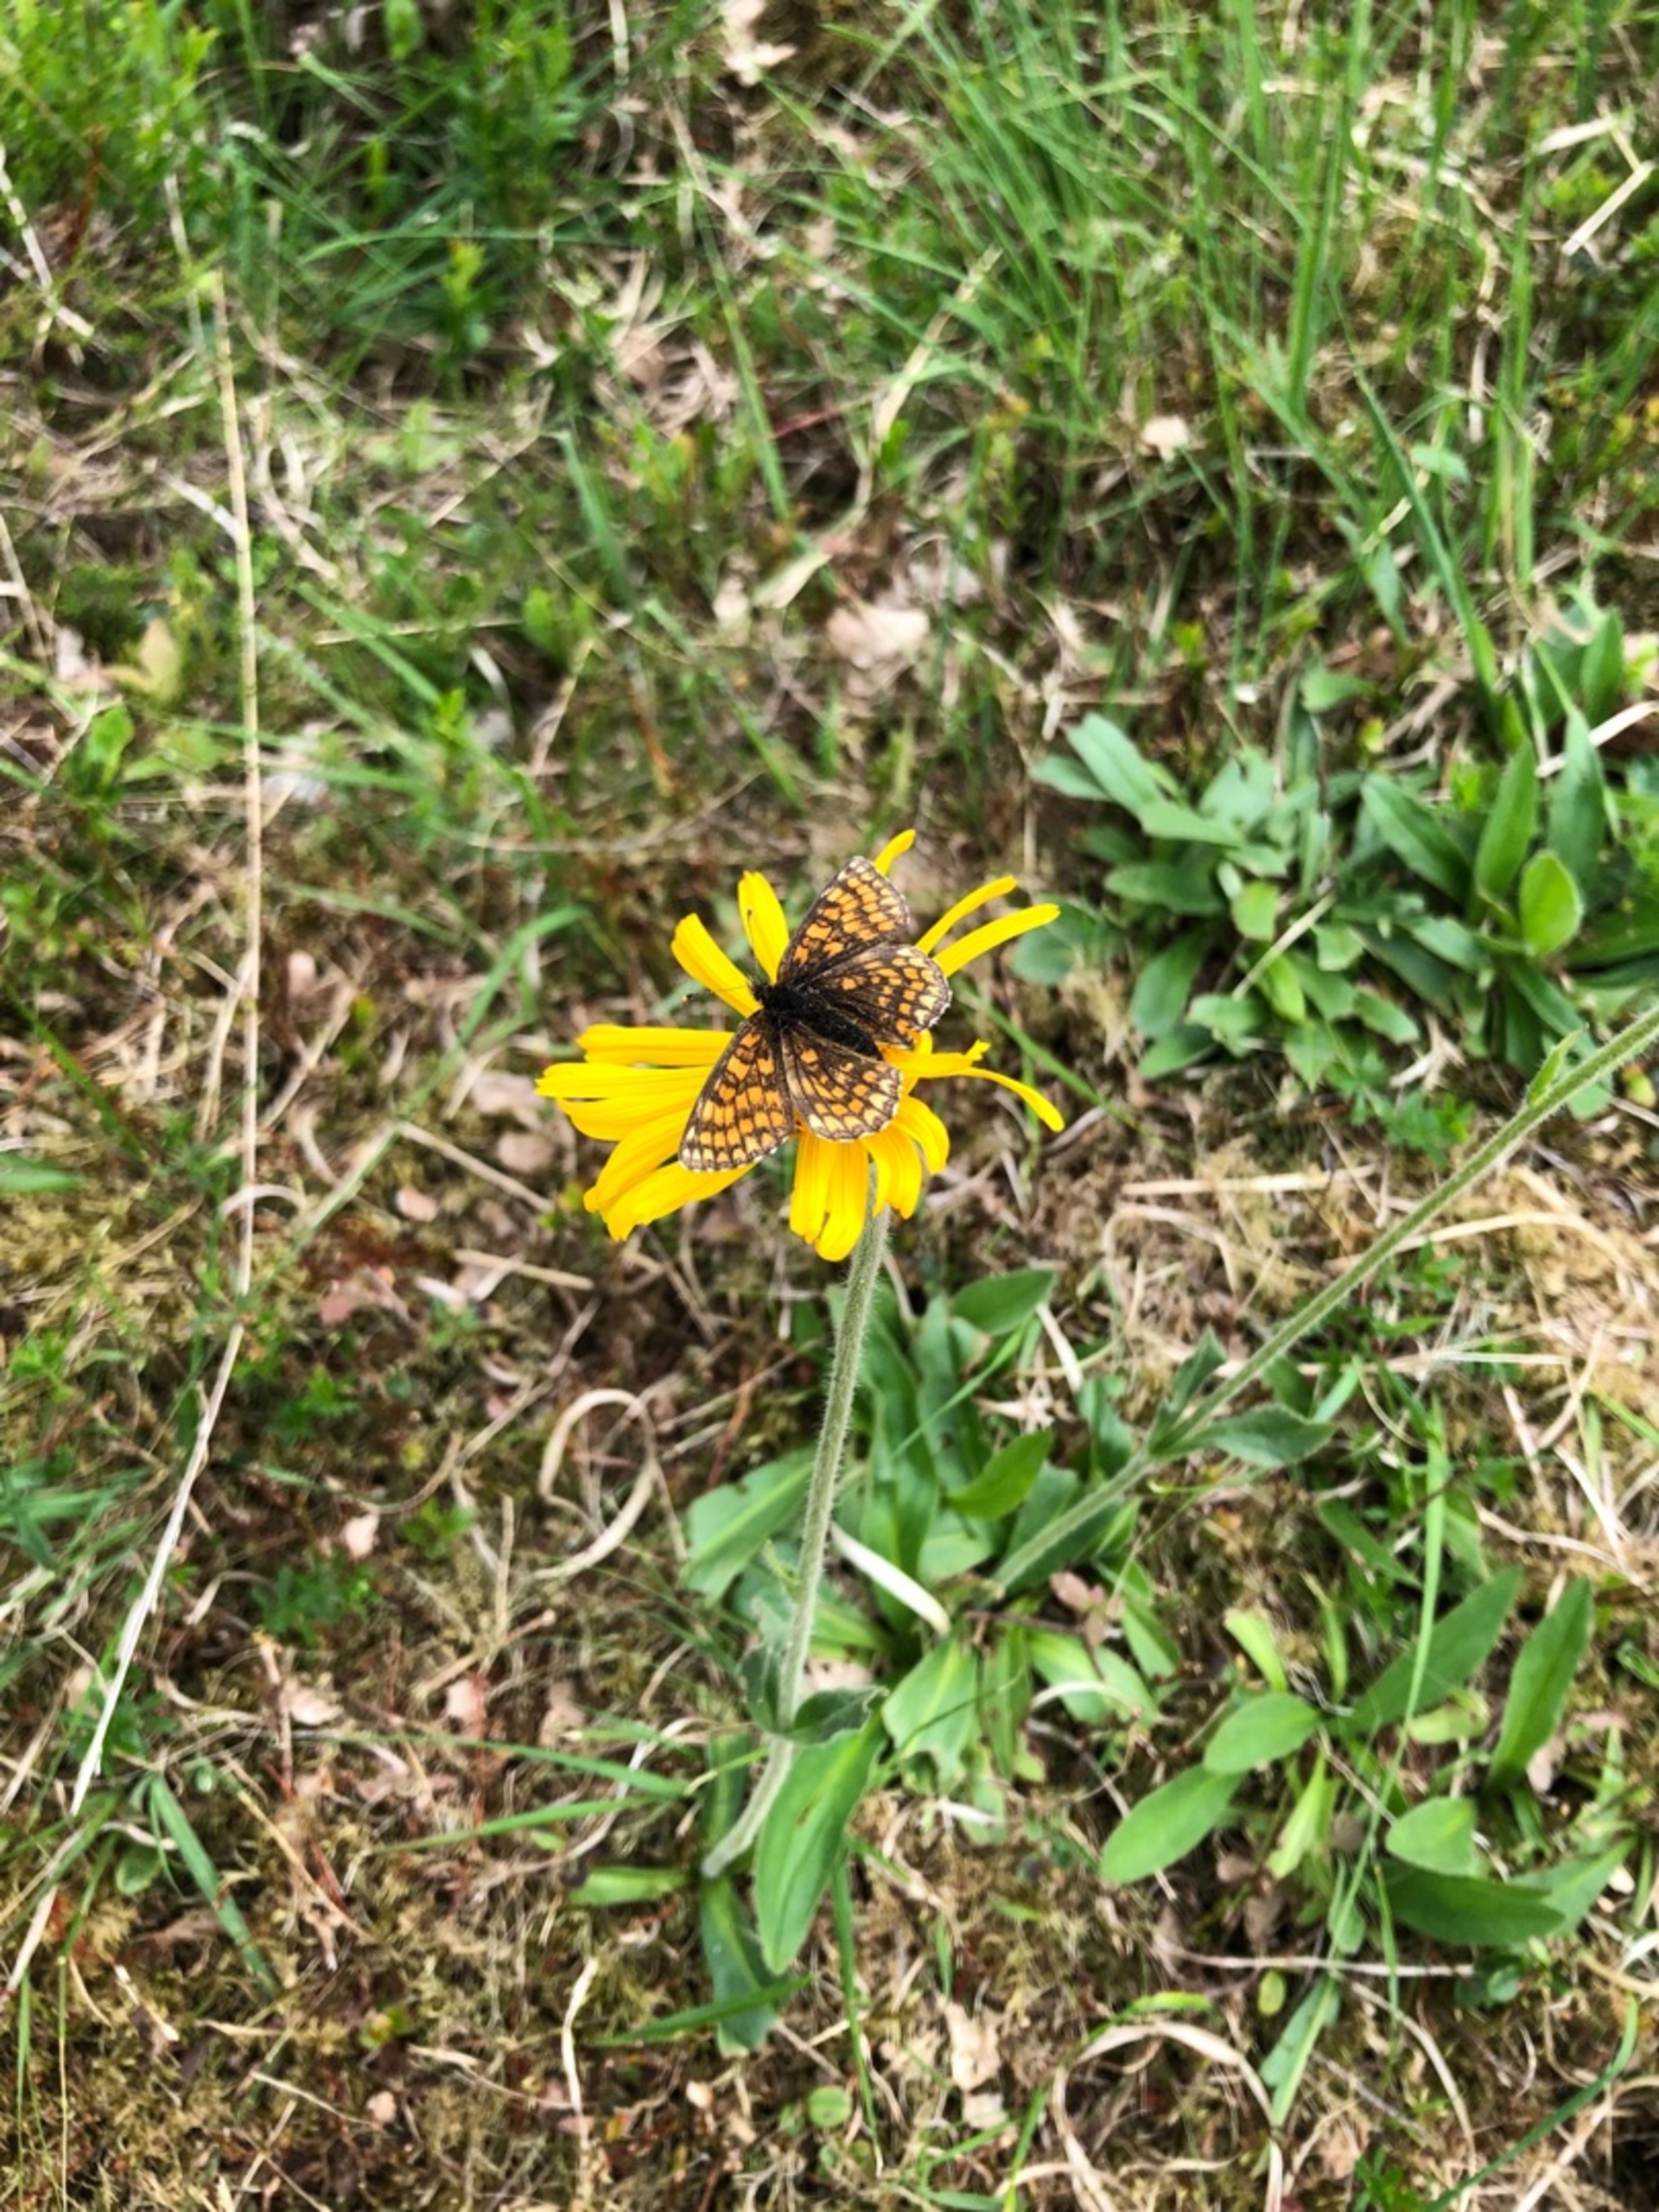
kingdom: Plantae
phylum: Tracheophyta
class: Magnoliopsida
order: Asterales
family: Asteraceae
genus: Arnica
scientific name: Arnica montana
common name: Guldblomme
